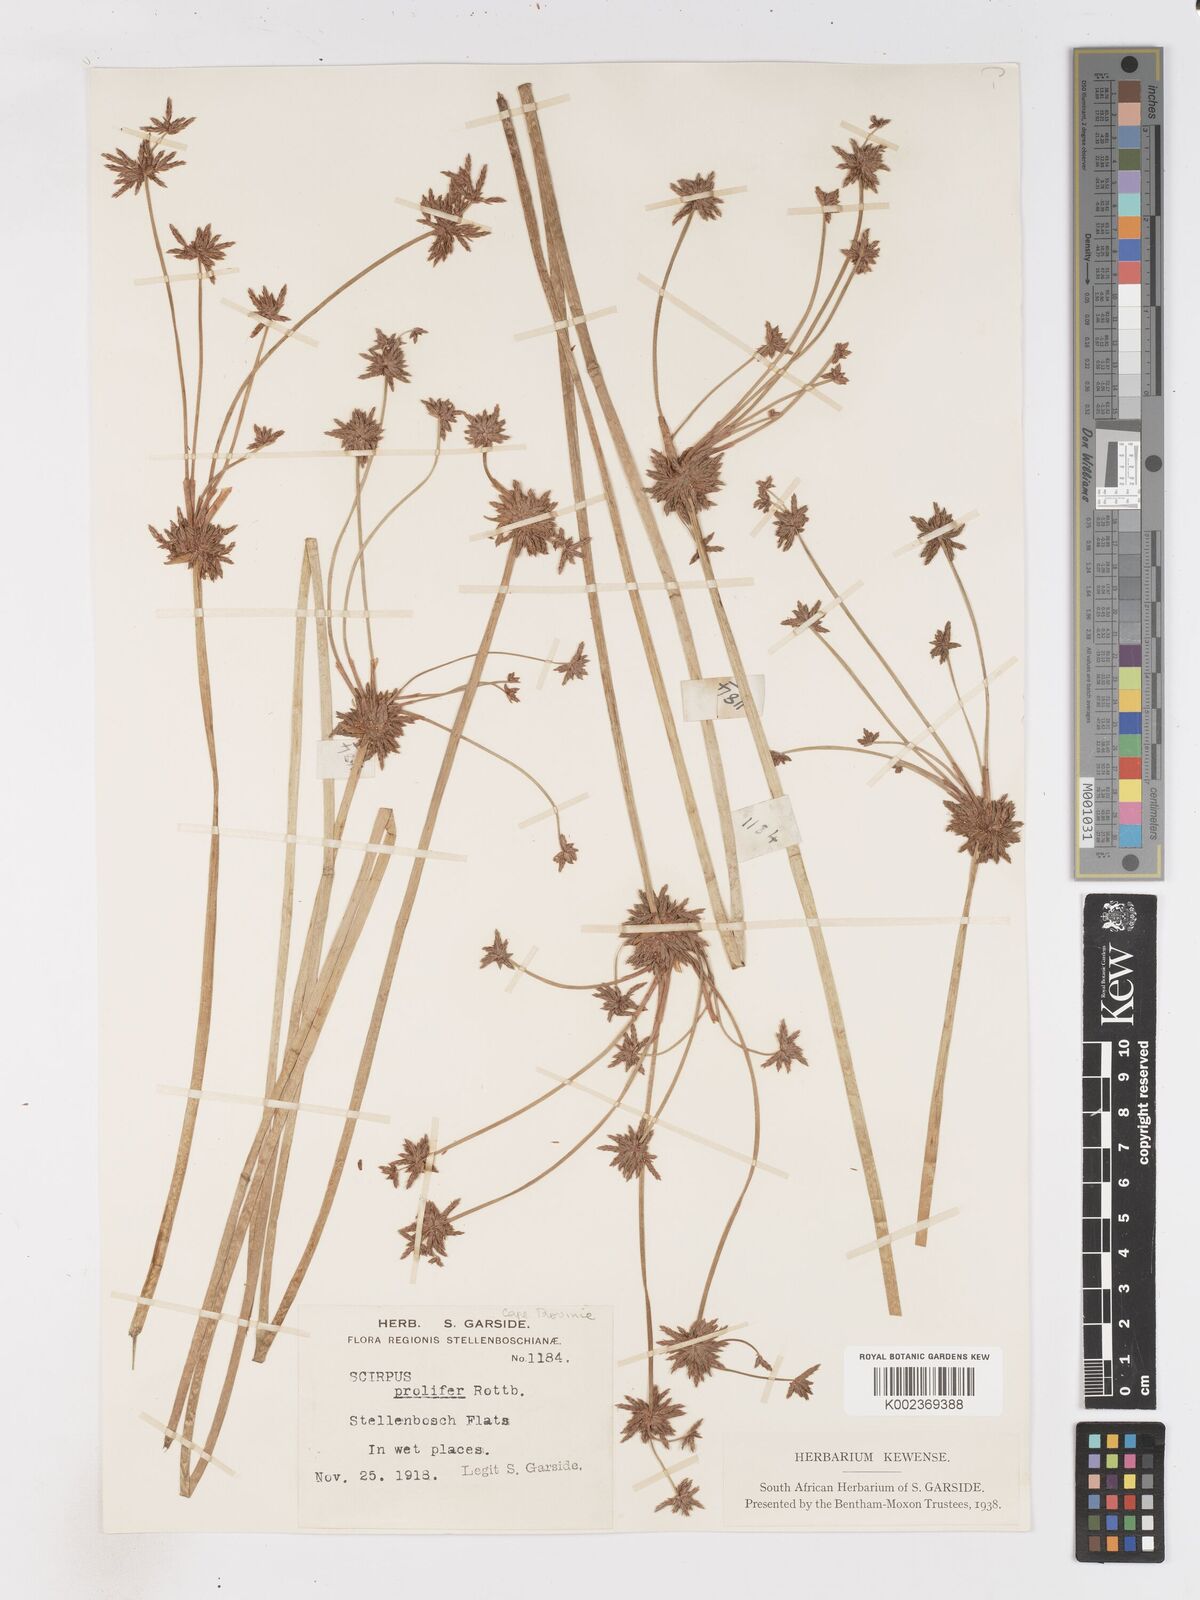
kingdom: Plantae
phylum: Tracheophyta
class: Liliopsida
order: Poales
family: Cyperaceae
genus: Isolepis
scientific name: Isolepis prolifera
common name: Proliferating bulrush
